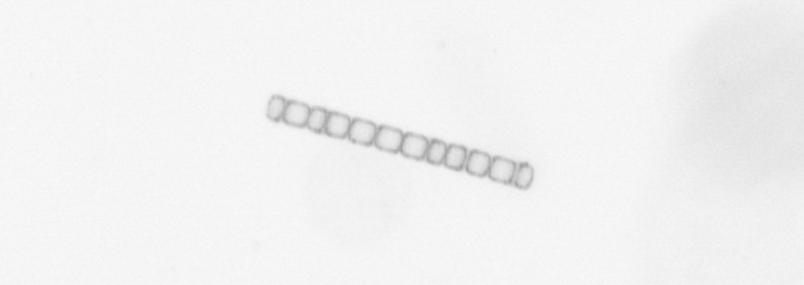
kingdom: Chromista
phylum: Ochrophyta
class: Bacillariophyceae
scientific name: Bacillariophyceae
